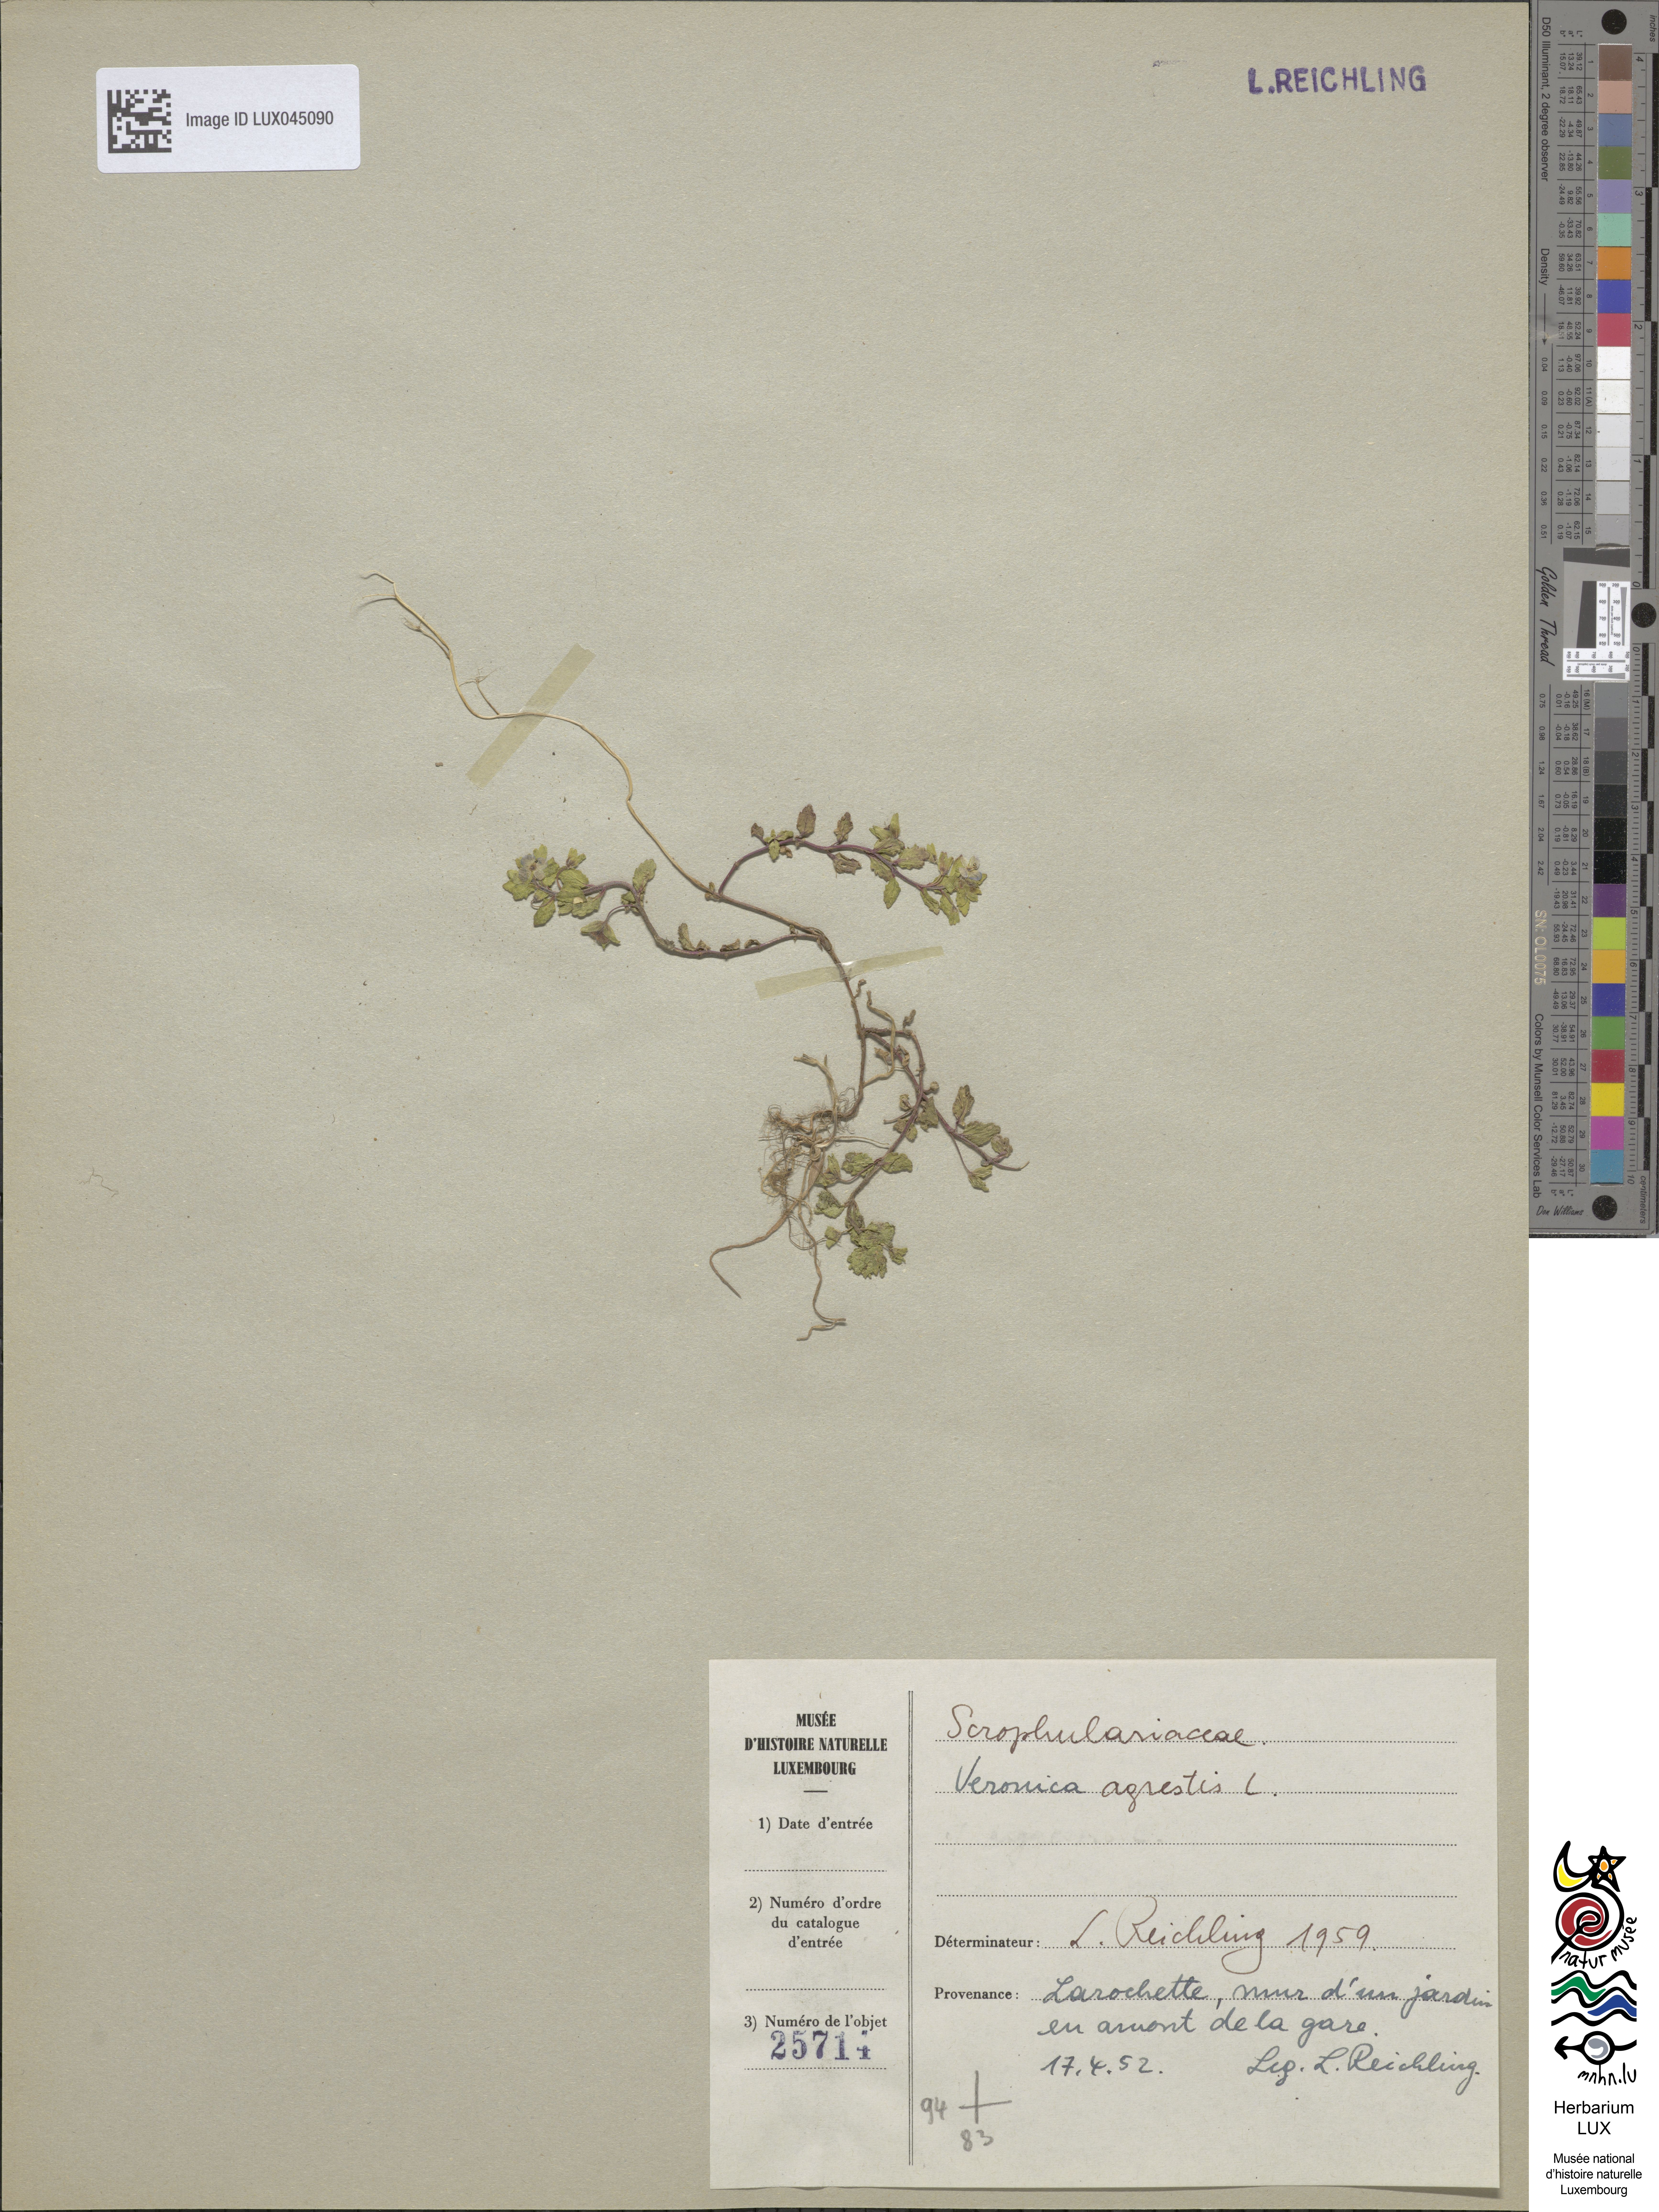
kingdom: Plantae
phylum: Tracheophyta
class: Magnoliopsida
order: Lamiales
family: Plantaginaceae
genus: Veronica
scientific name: Veronica agrestis
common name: Green field-speedwell
